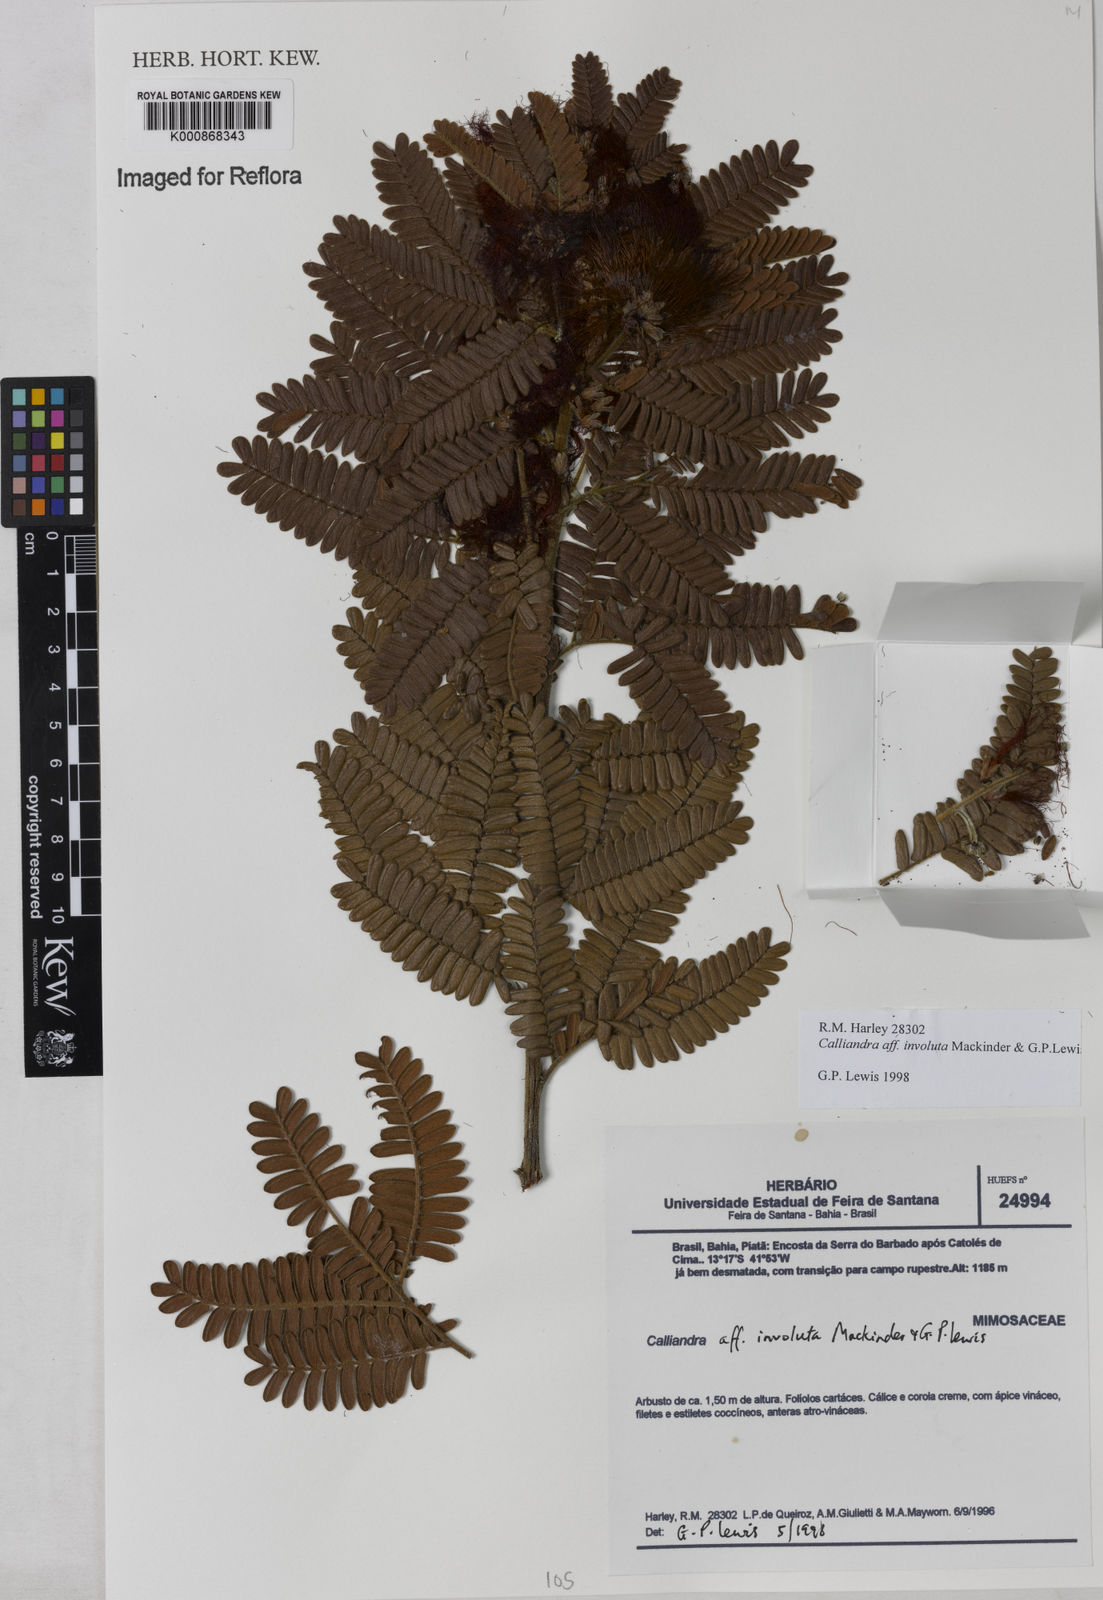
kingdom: Plantae
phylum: Tracheophyta
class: Magnoliopsida
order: Fabales
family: Fabaceae
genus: Calliandra
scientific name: Calliandra involuta
